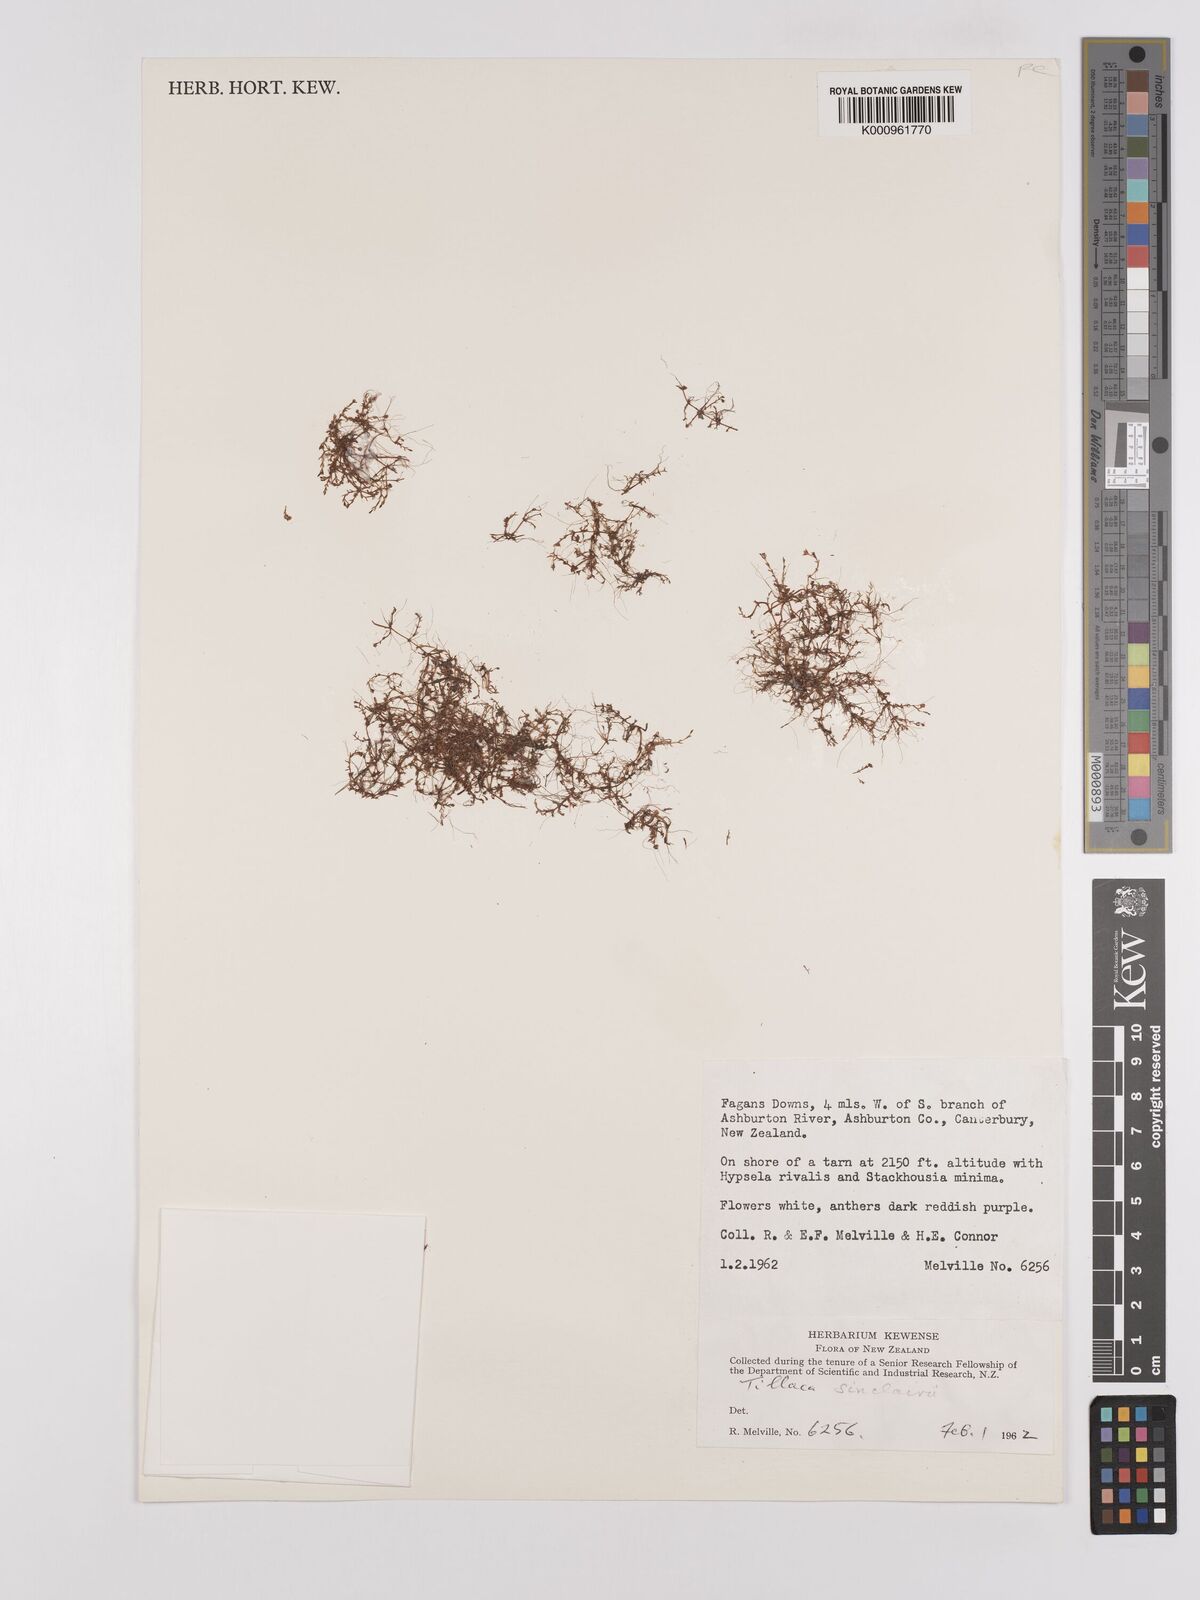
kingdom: Plantae
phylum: Tracheophyta
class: Magnoliopsida
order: Saxifragales
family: Crassulaceae
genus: Crassula
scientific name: Crassula sinclairii
